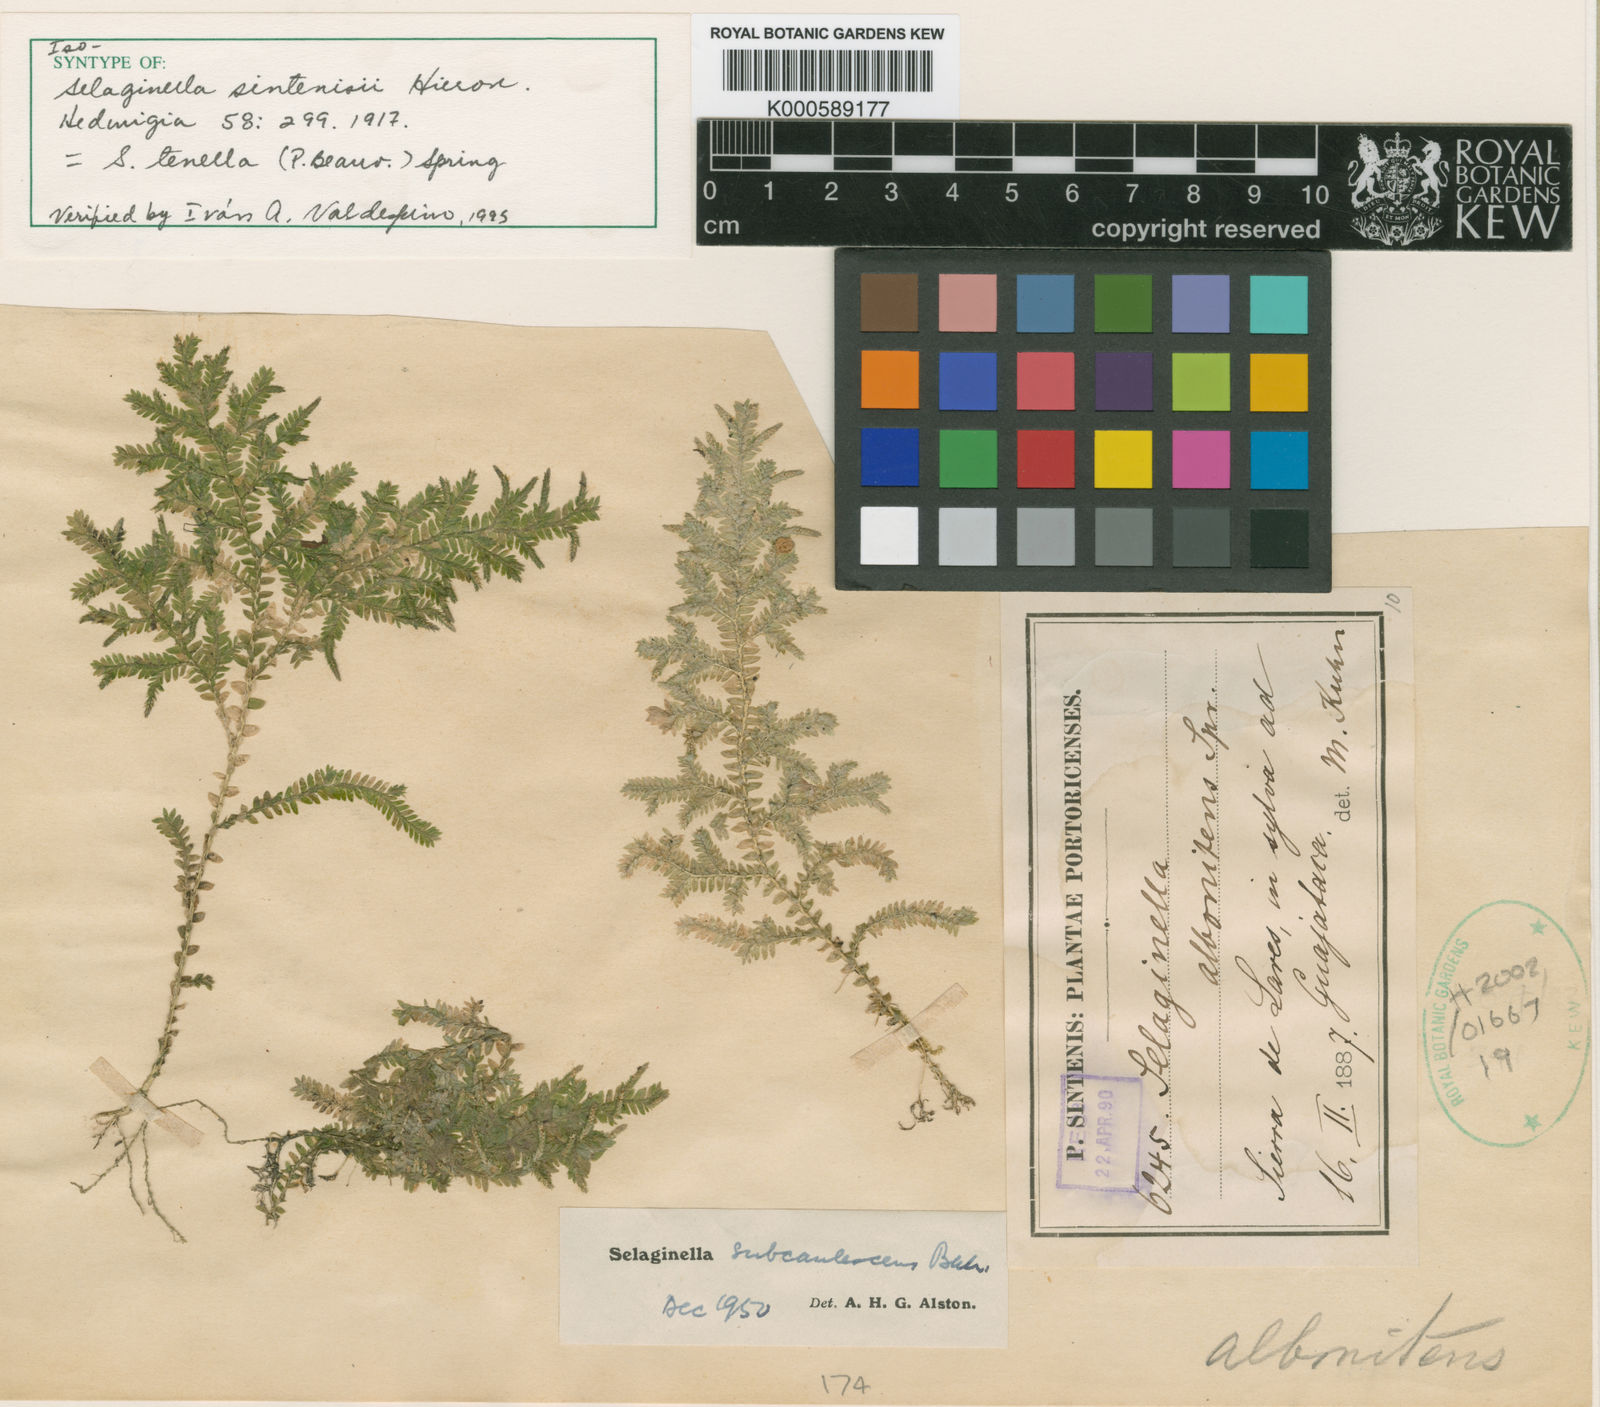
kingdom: Plantae
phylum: Tracheophyta
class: Lycopodiopsida
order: Selaginellales
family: Selaginellaceae
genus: Selaginella
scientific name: Selaginella tenella
